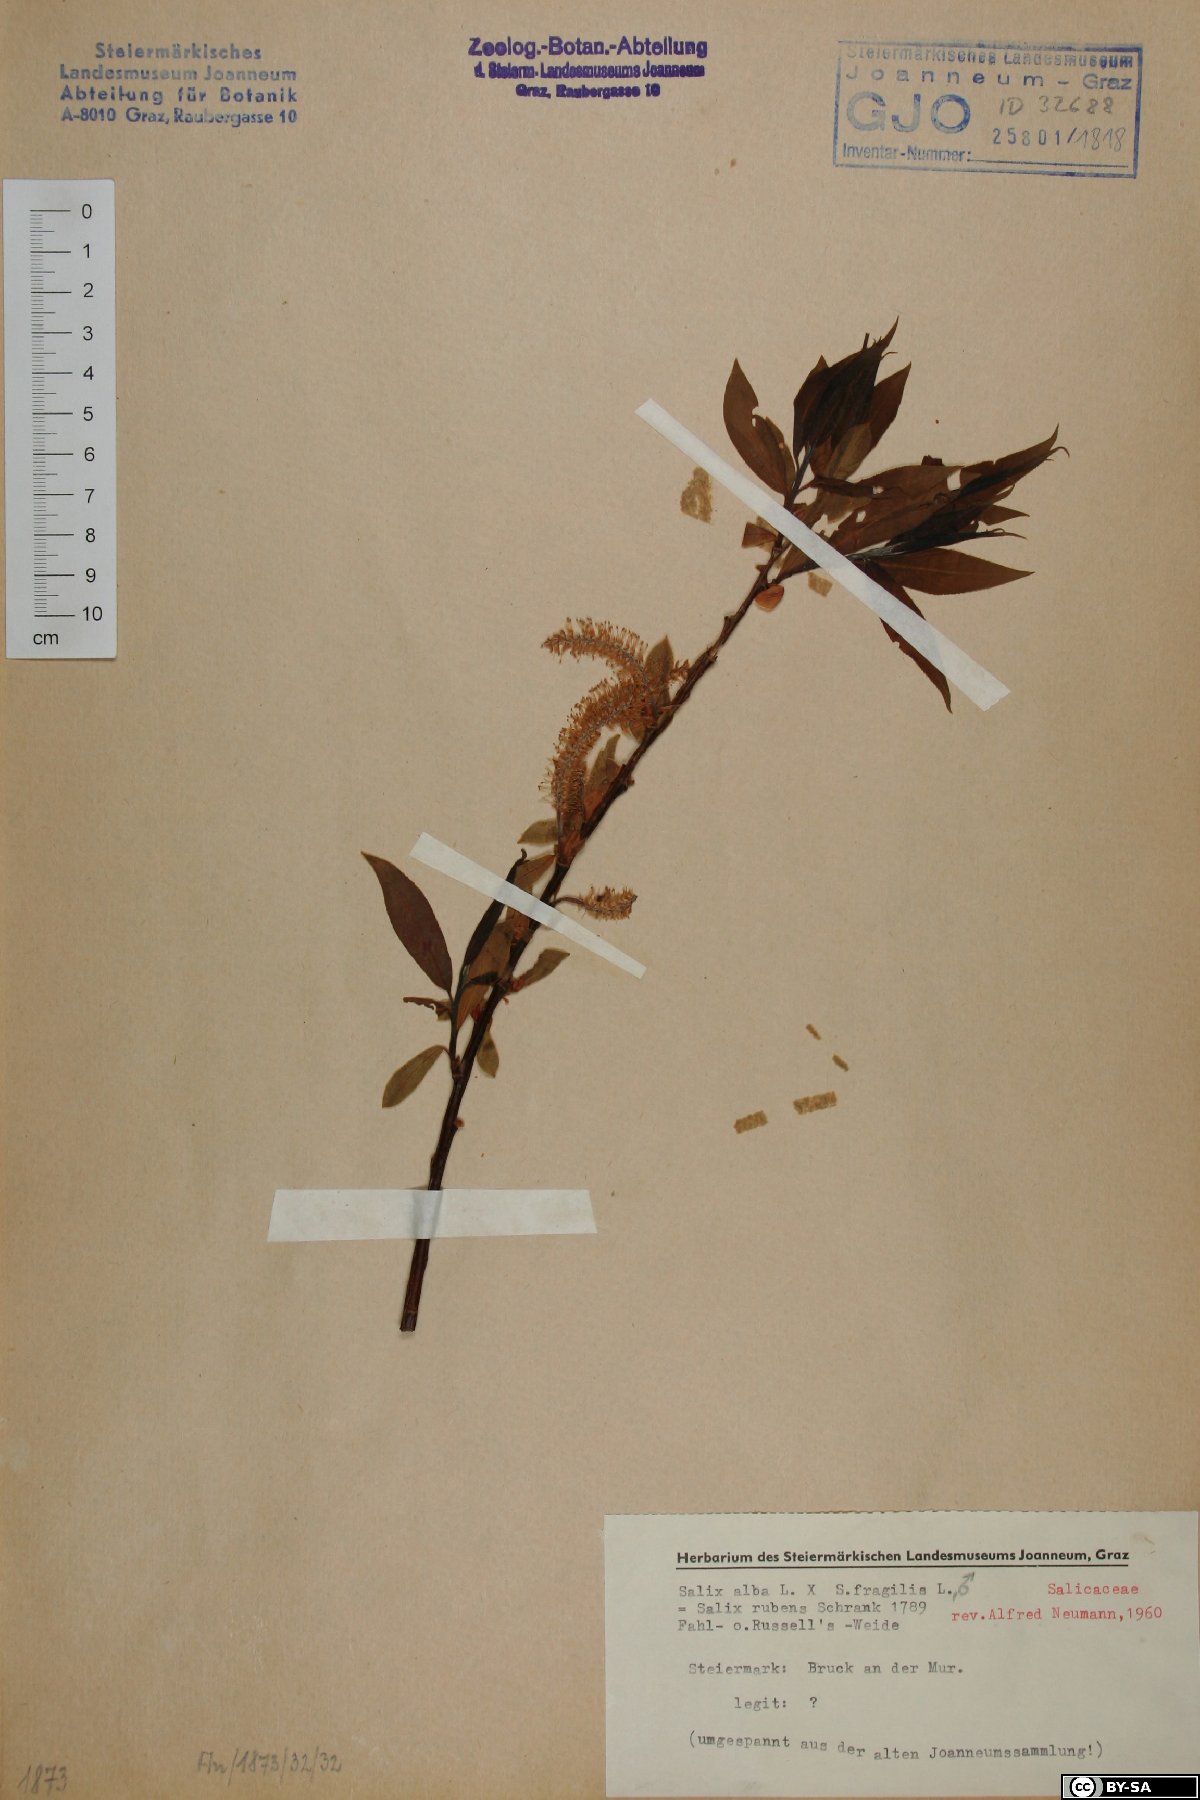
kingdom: Plantae
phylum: Tracheophyta
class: Magnoliopsida
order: Malpighiales
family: Salicaceae
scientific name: Salicaceae
